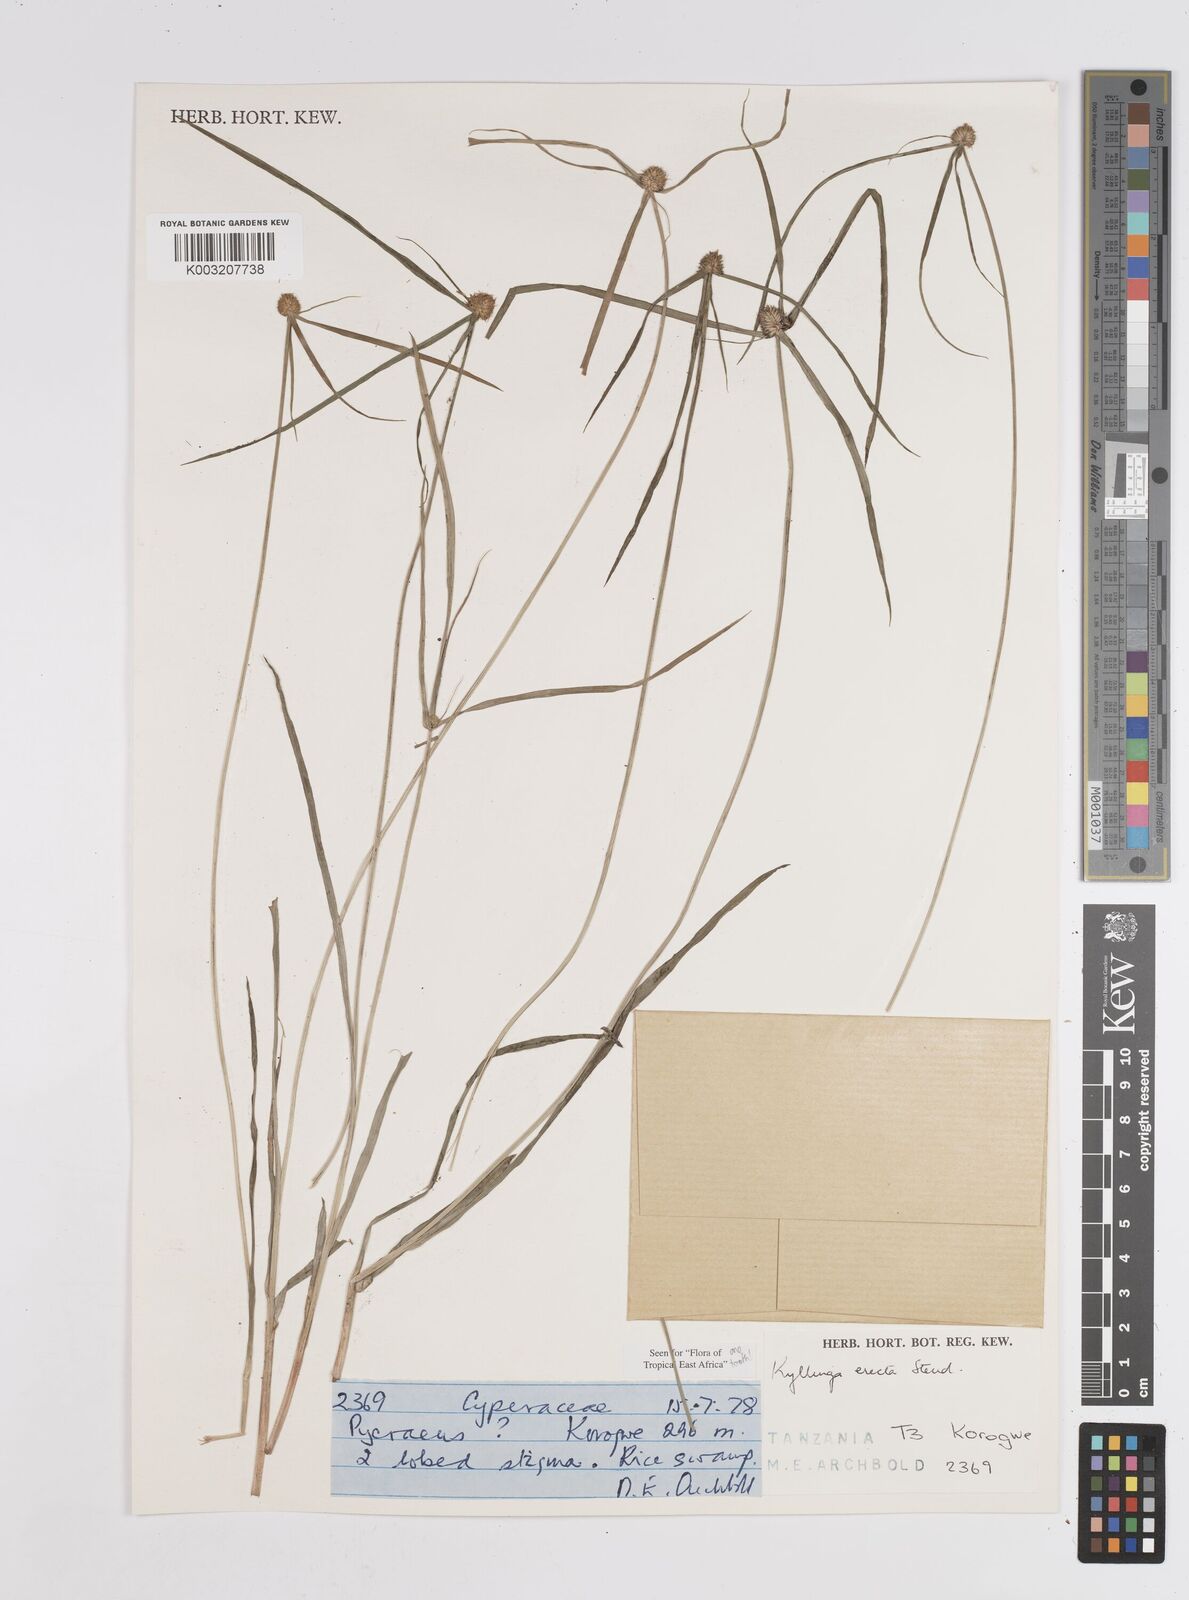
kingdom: Plantae
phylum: Tracheophyta
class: Liliopsida
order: Poales
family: Cyperaceae
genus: Cyperus
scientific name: Cyperus erectus
